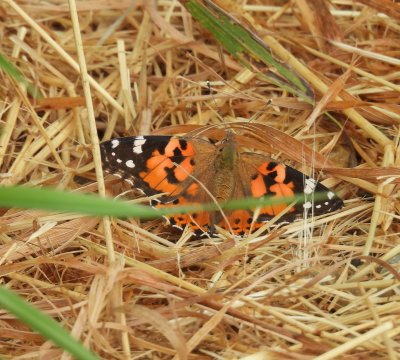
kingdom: Animalia
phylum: Arthropoda
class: Insecta
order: Lepidoptera
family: Nymphalidae
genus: Vanessa
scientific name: Vanessa cardui
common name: Painted Lady
